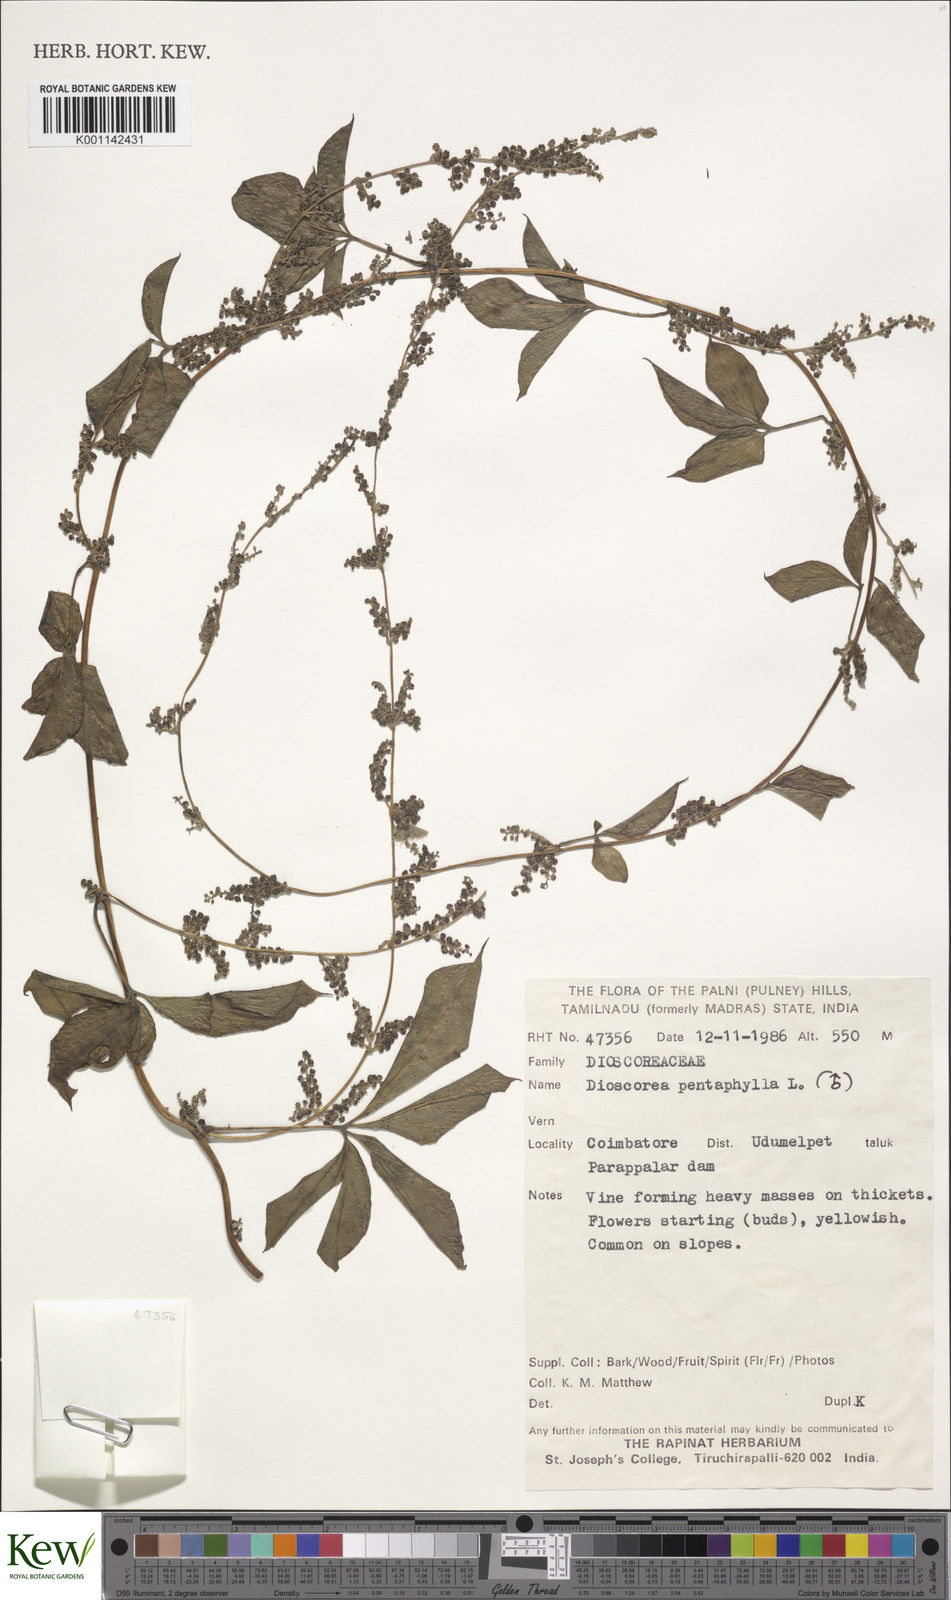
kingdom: Plantae
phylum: Tracheophyta
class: Liliopsida
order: Dioscoreales
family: Dioscoreaceae
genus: Dioscorea
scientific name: Dioscorea pentaphylla
